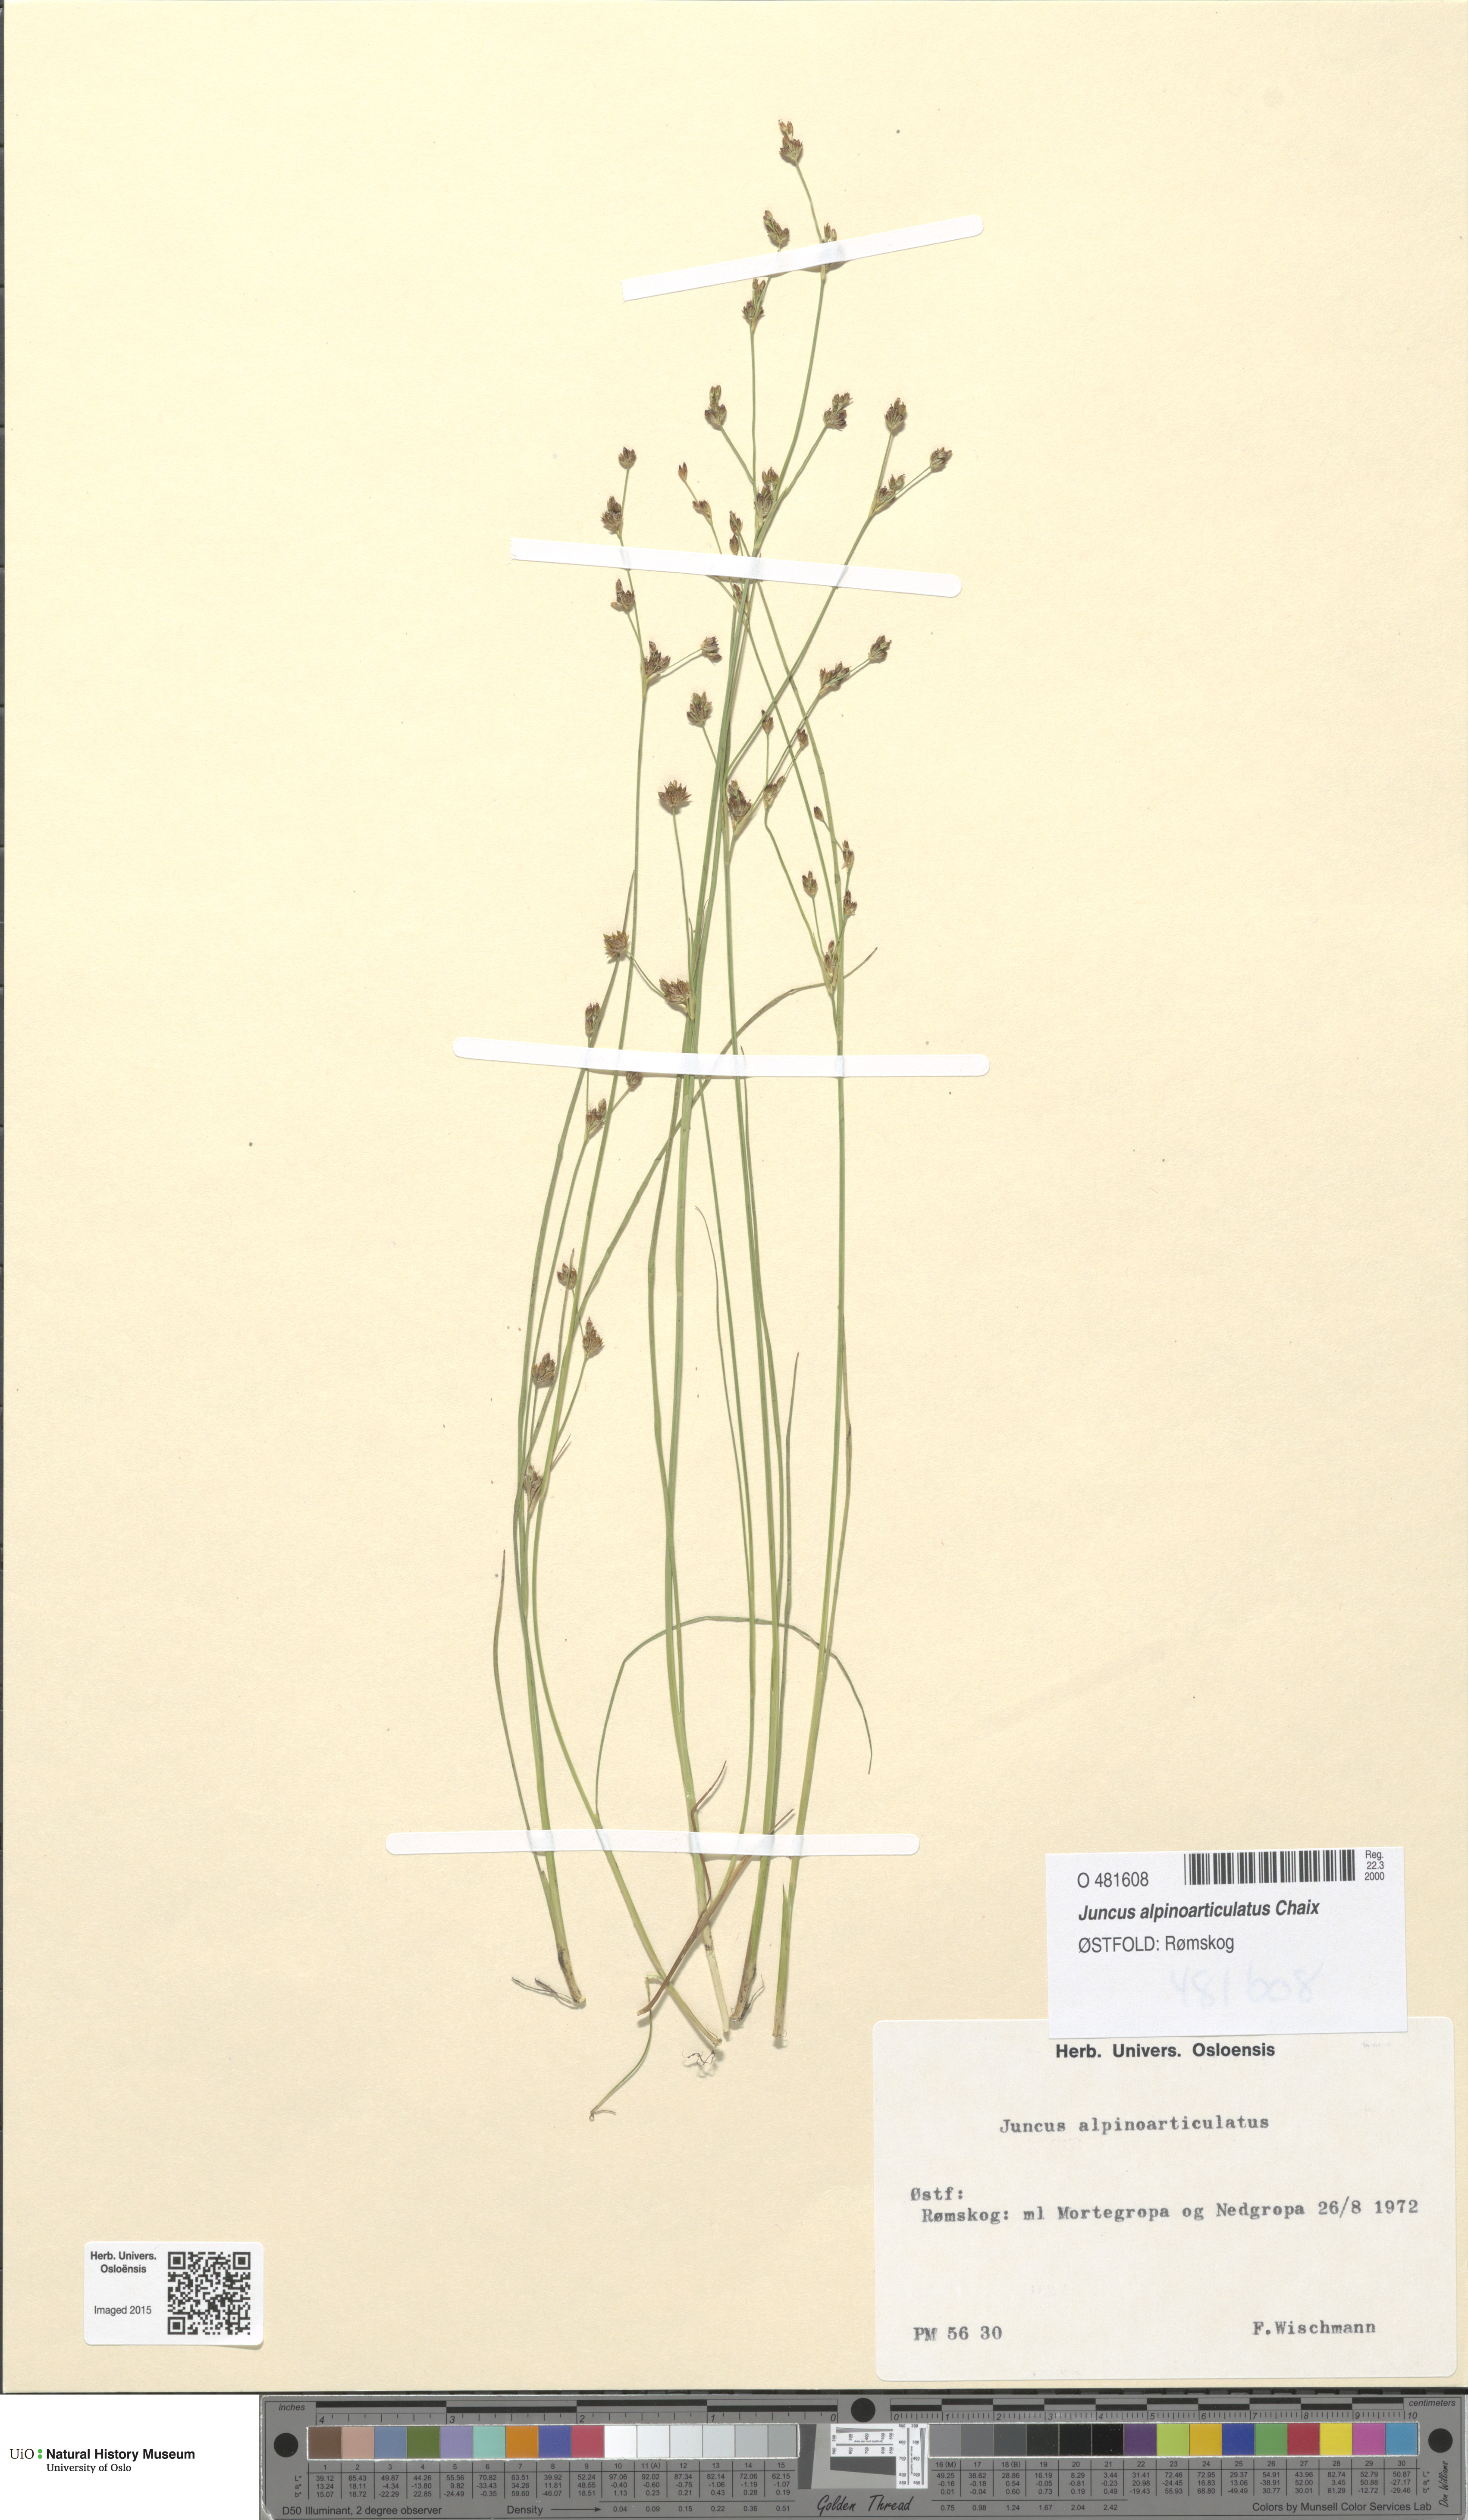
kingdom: Plantae
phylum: Tracheophyta
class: Liliopsida
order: Poales
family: Juncaceae
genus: Juncus
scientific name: Juncus alpinoarticulatus
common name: Alpine rush
